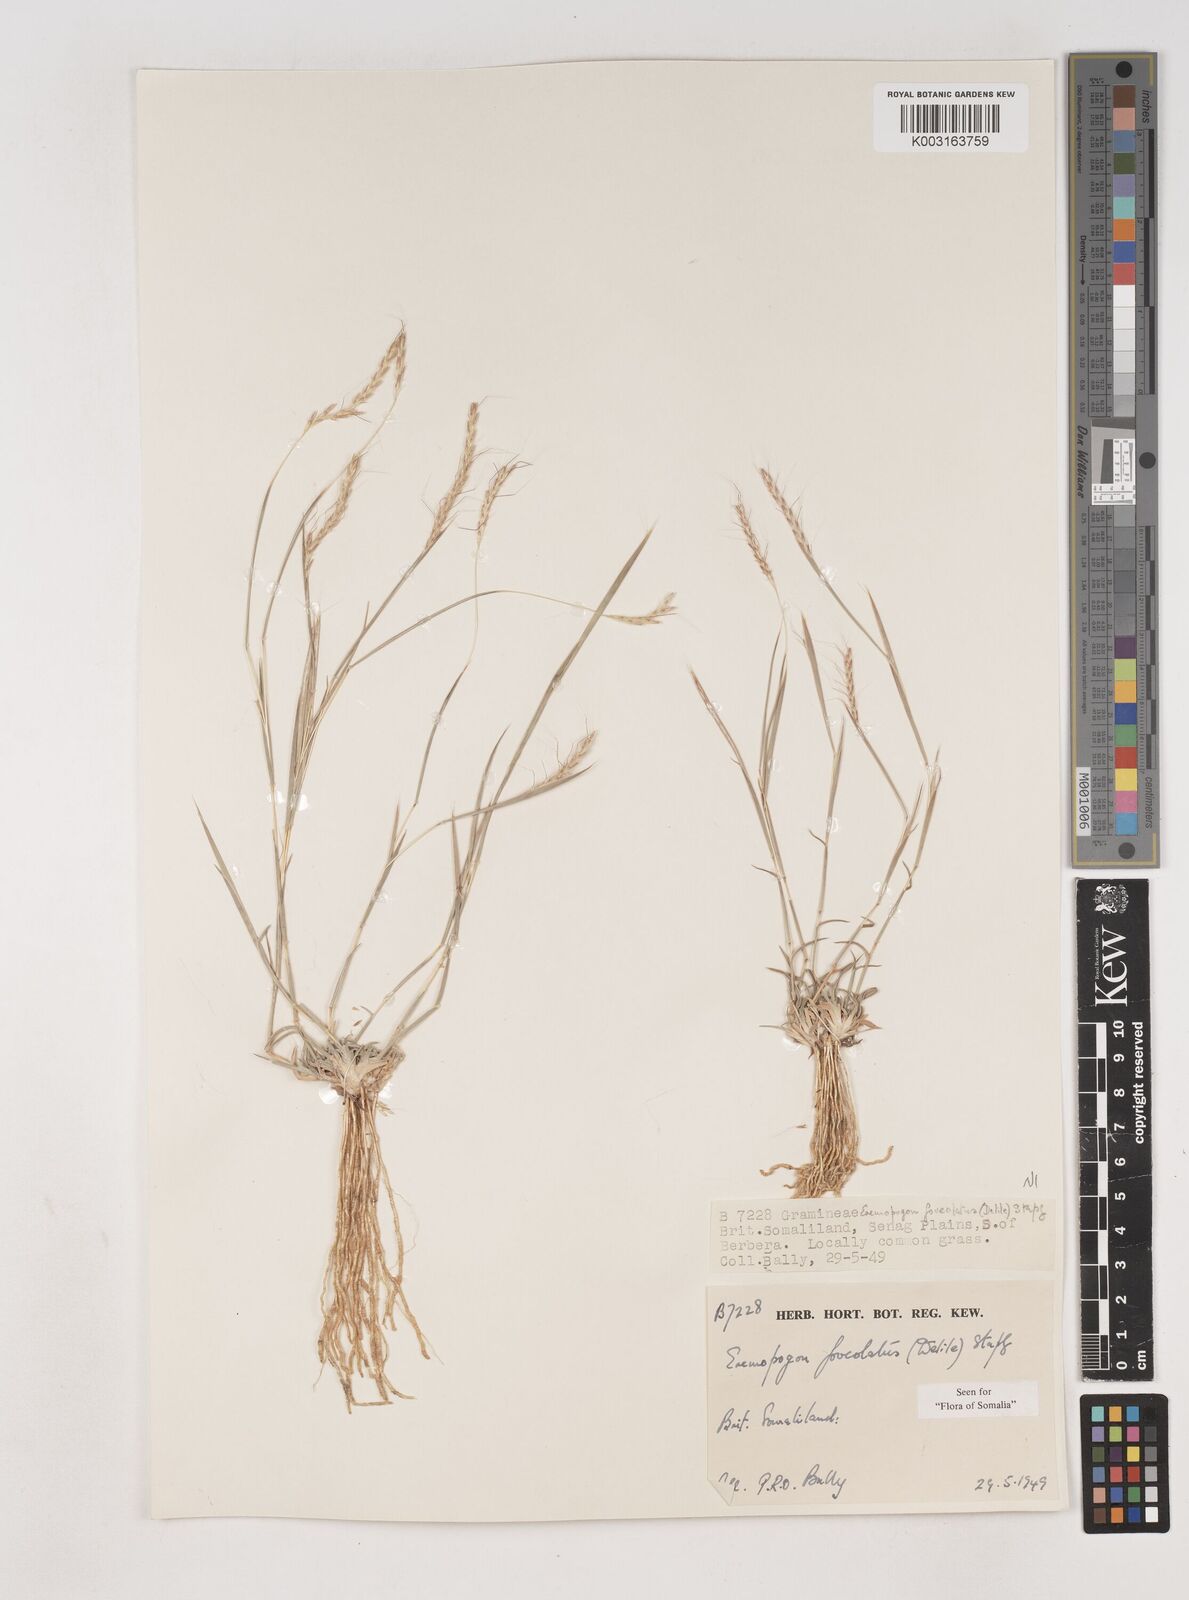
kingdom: Plantae
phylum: Tracheophyta
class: Liliopsida
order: Poales
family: Poaceae
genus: Dichanthium
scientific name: Dichanthium foveolatum
